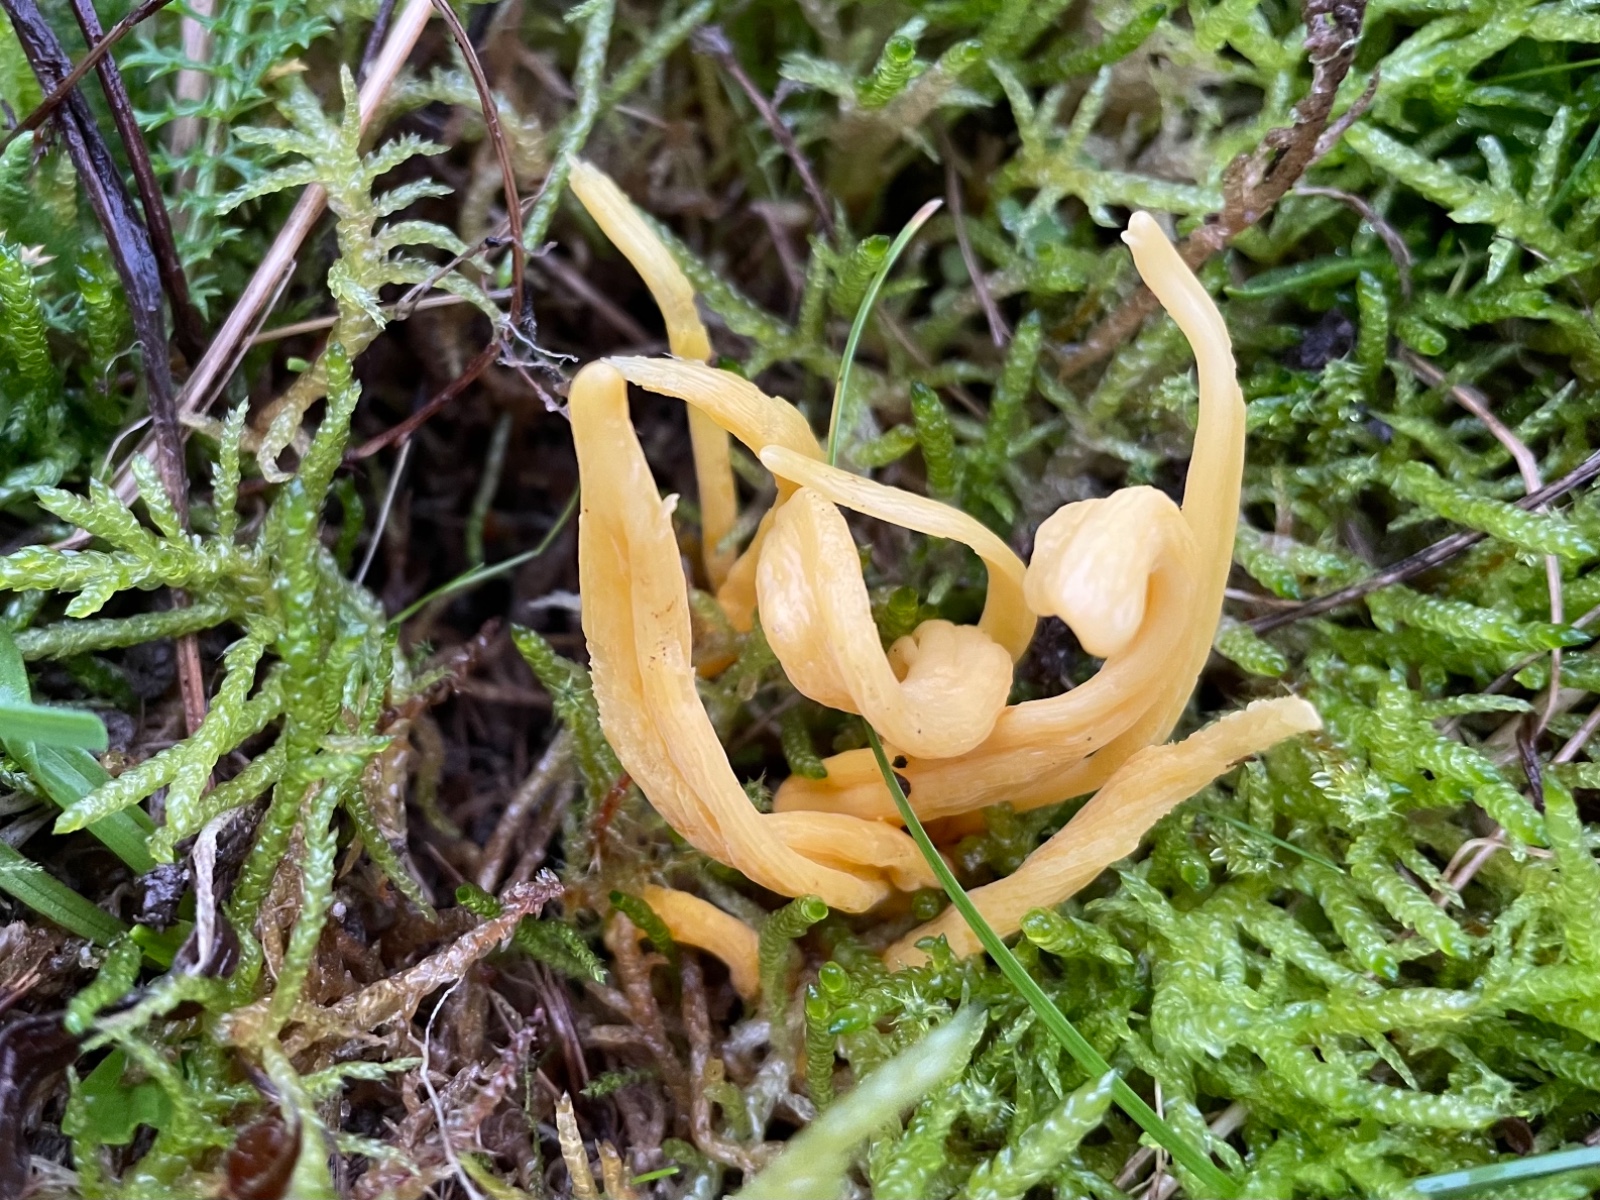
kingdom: Fungi
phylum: Basidiomycota
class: Agaricomycetes
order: Agaricales
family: Clavariaceae
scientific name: Clavariaceae
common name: køllesvampfamilien
